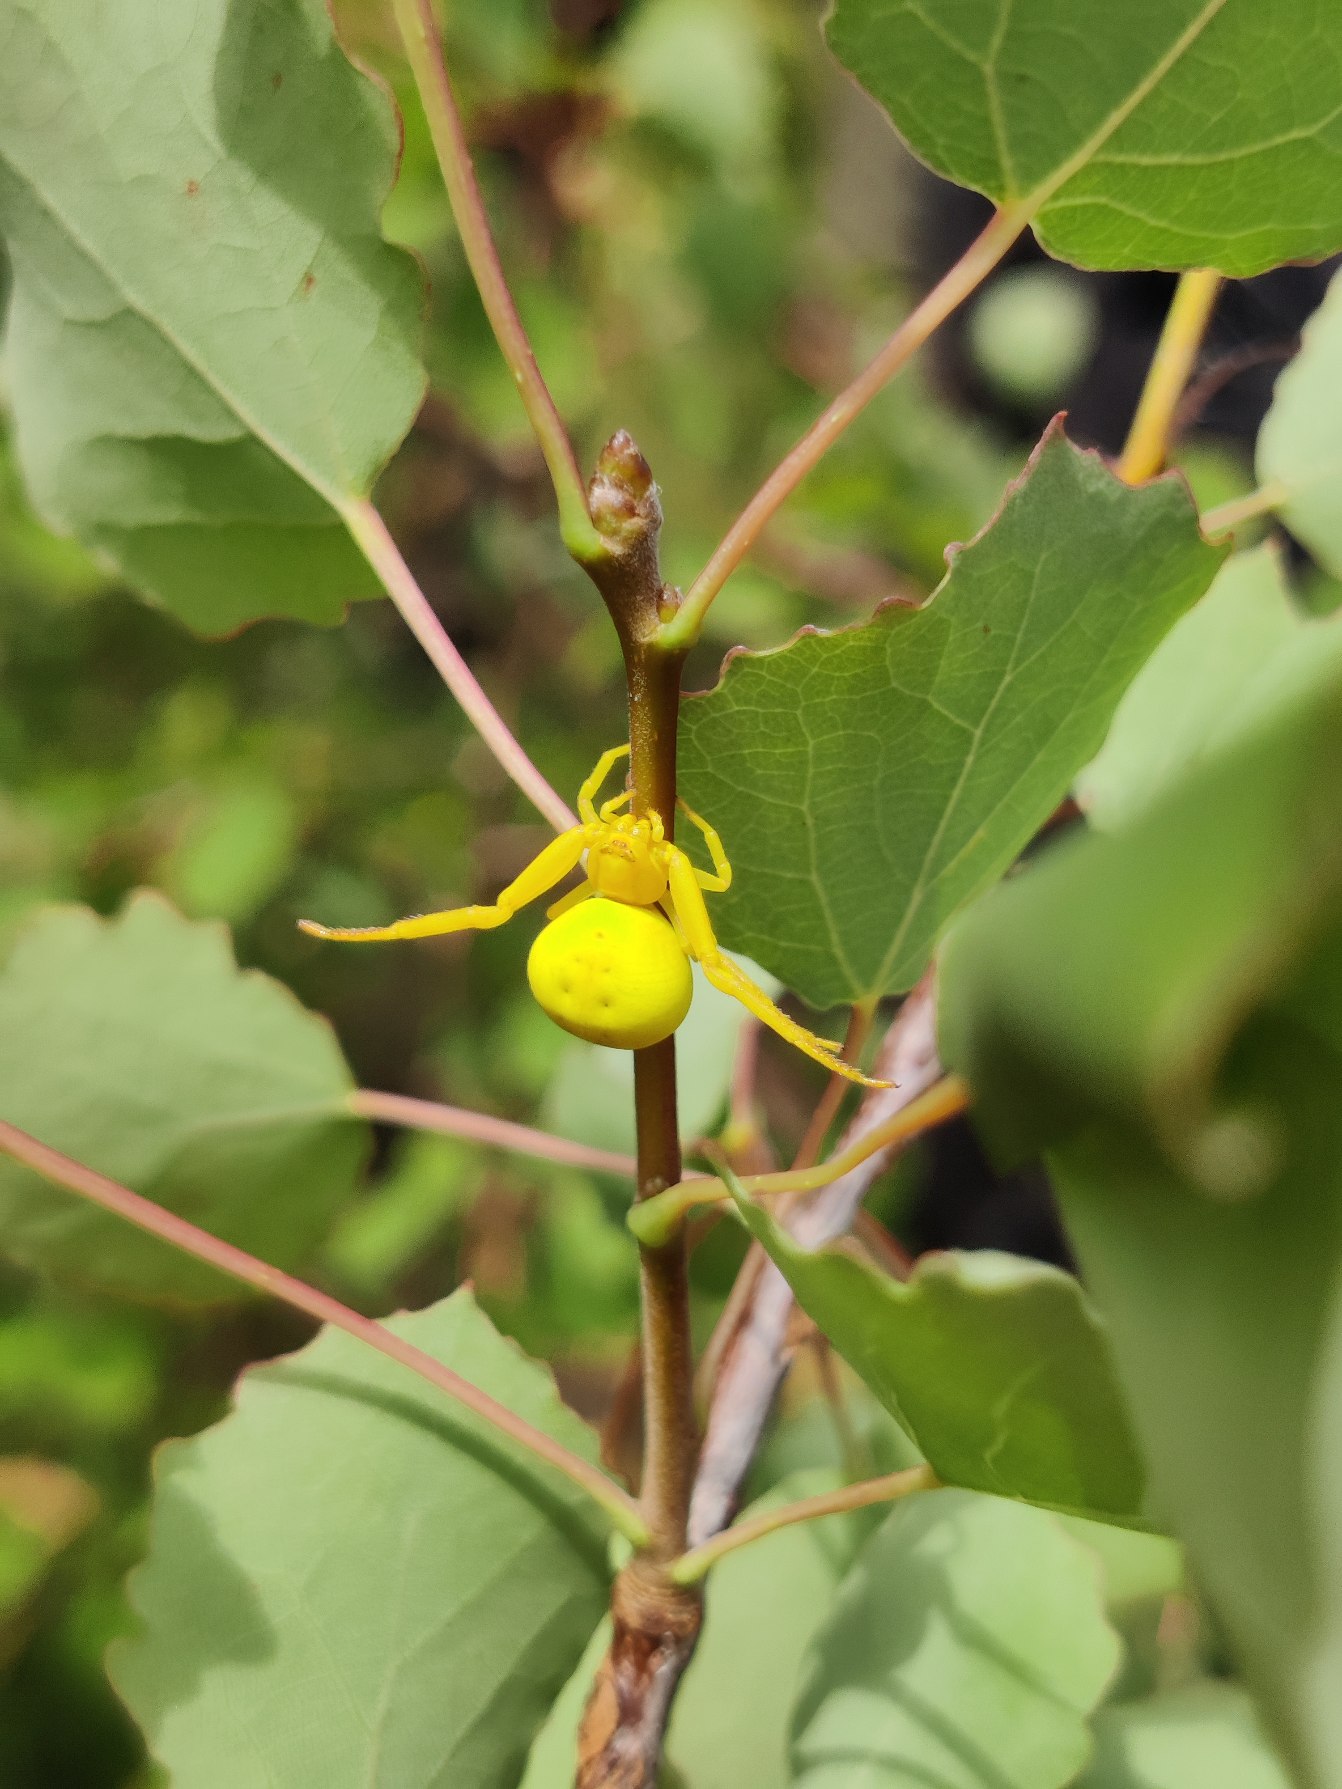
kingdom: Animalia
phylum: Arthropoda
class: Arachnida
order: Araneae
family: Thomisidae
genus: Misumena
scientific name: Misumena vatia
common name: Kamæleonedderkop
